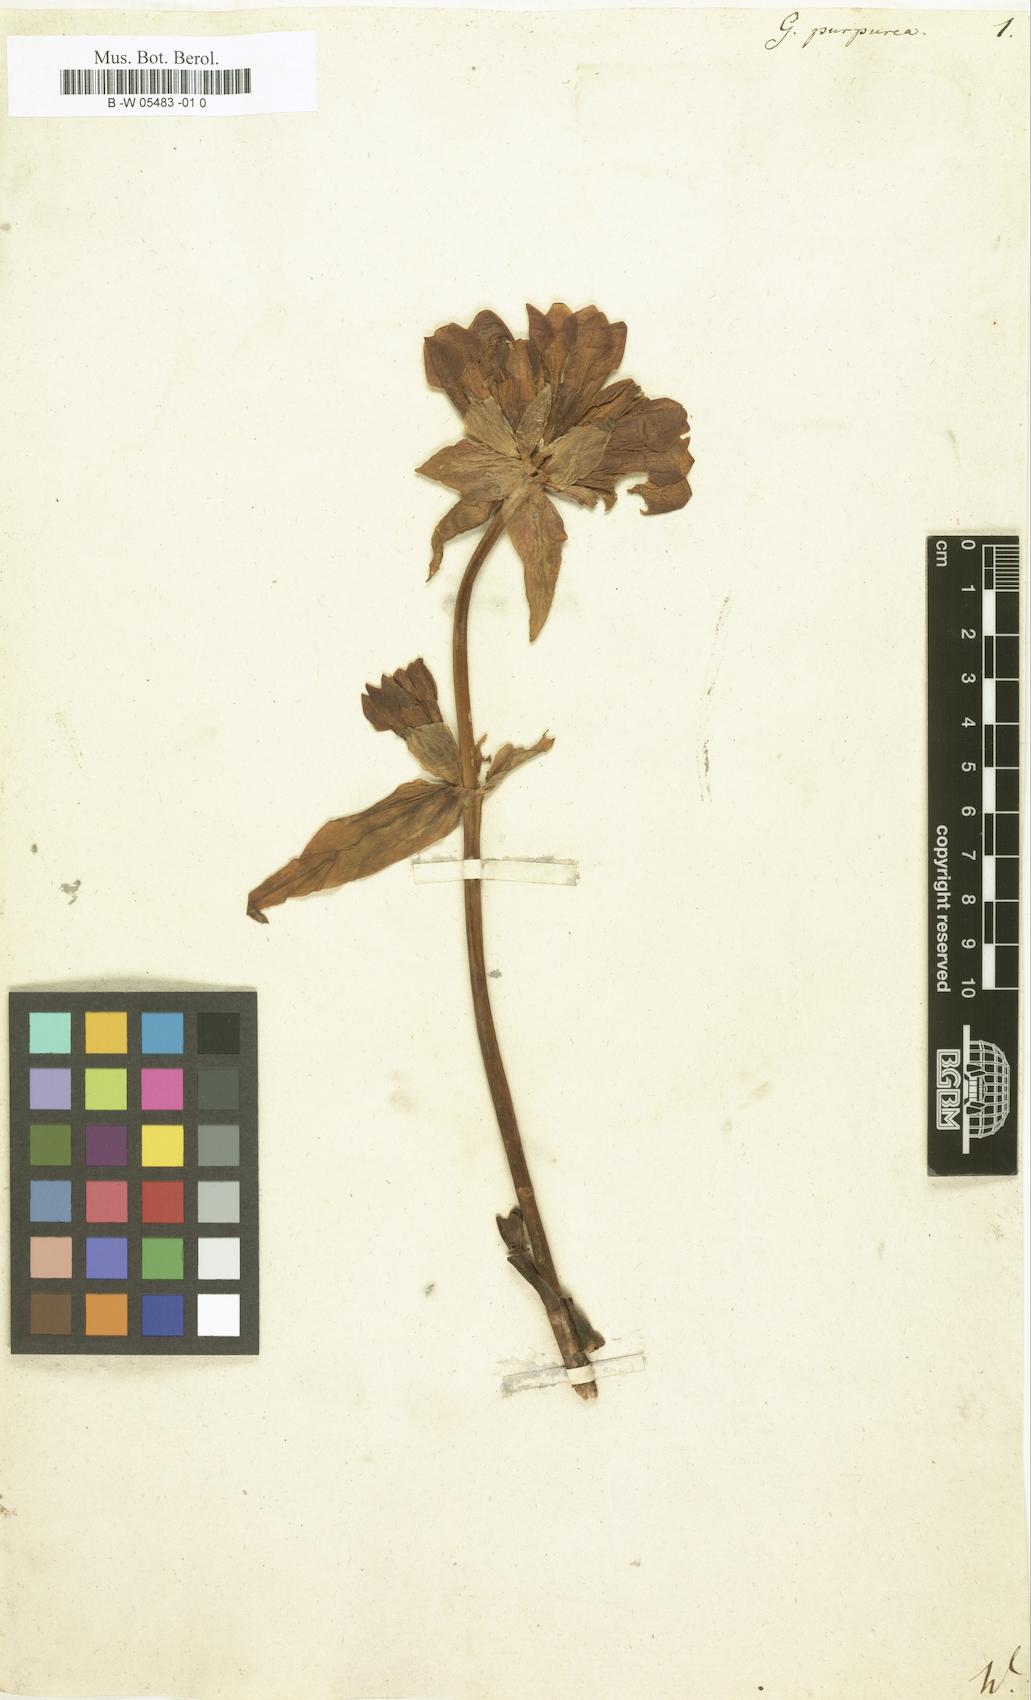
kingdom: Plantae
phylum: Tracheophyta
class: Magnoliopsida
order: Gentianales
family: Gentianaceae
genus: Gentiana
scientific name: Gentiana purpurea
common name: Purple gentian
